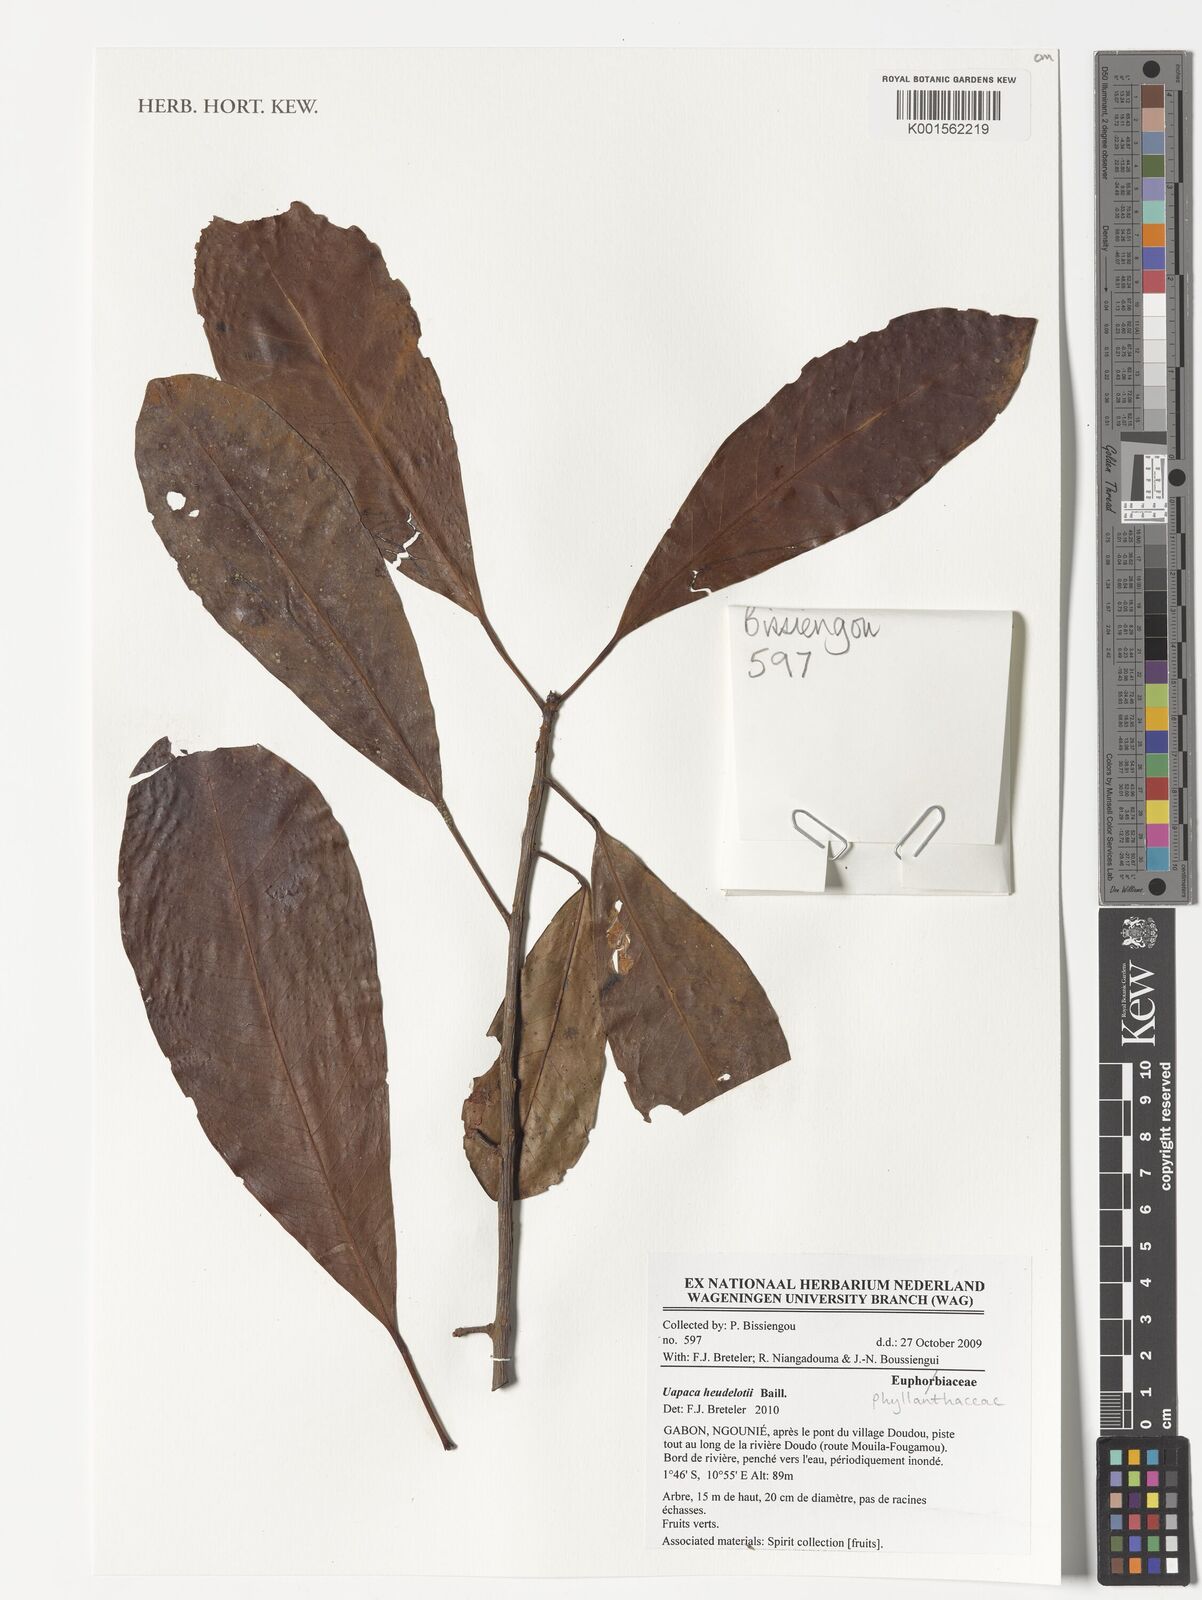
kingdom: Plantae
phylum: Tracheophyta
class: Magnoliopsida
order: Malpighiales
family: Phyllanthaceae
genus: Uapaca
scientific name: Uapaca heudelotii
